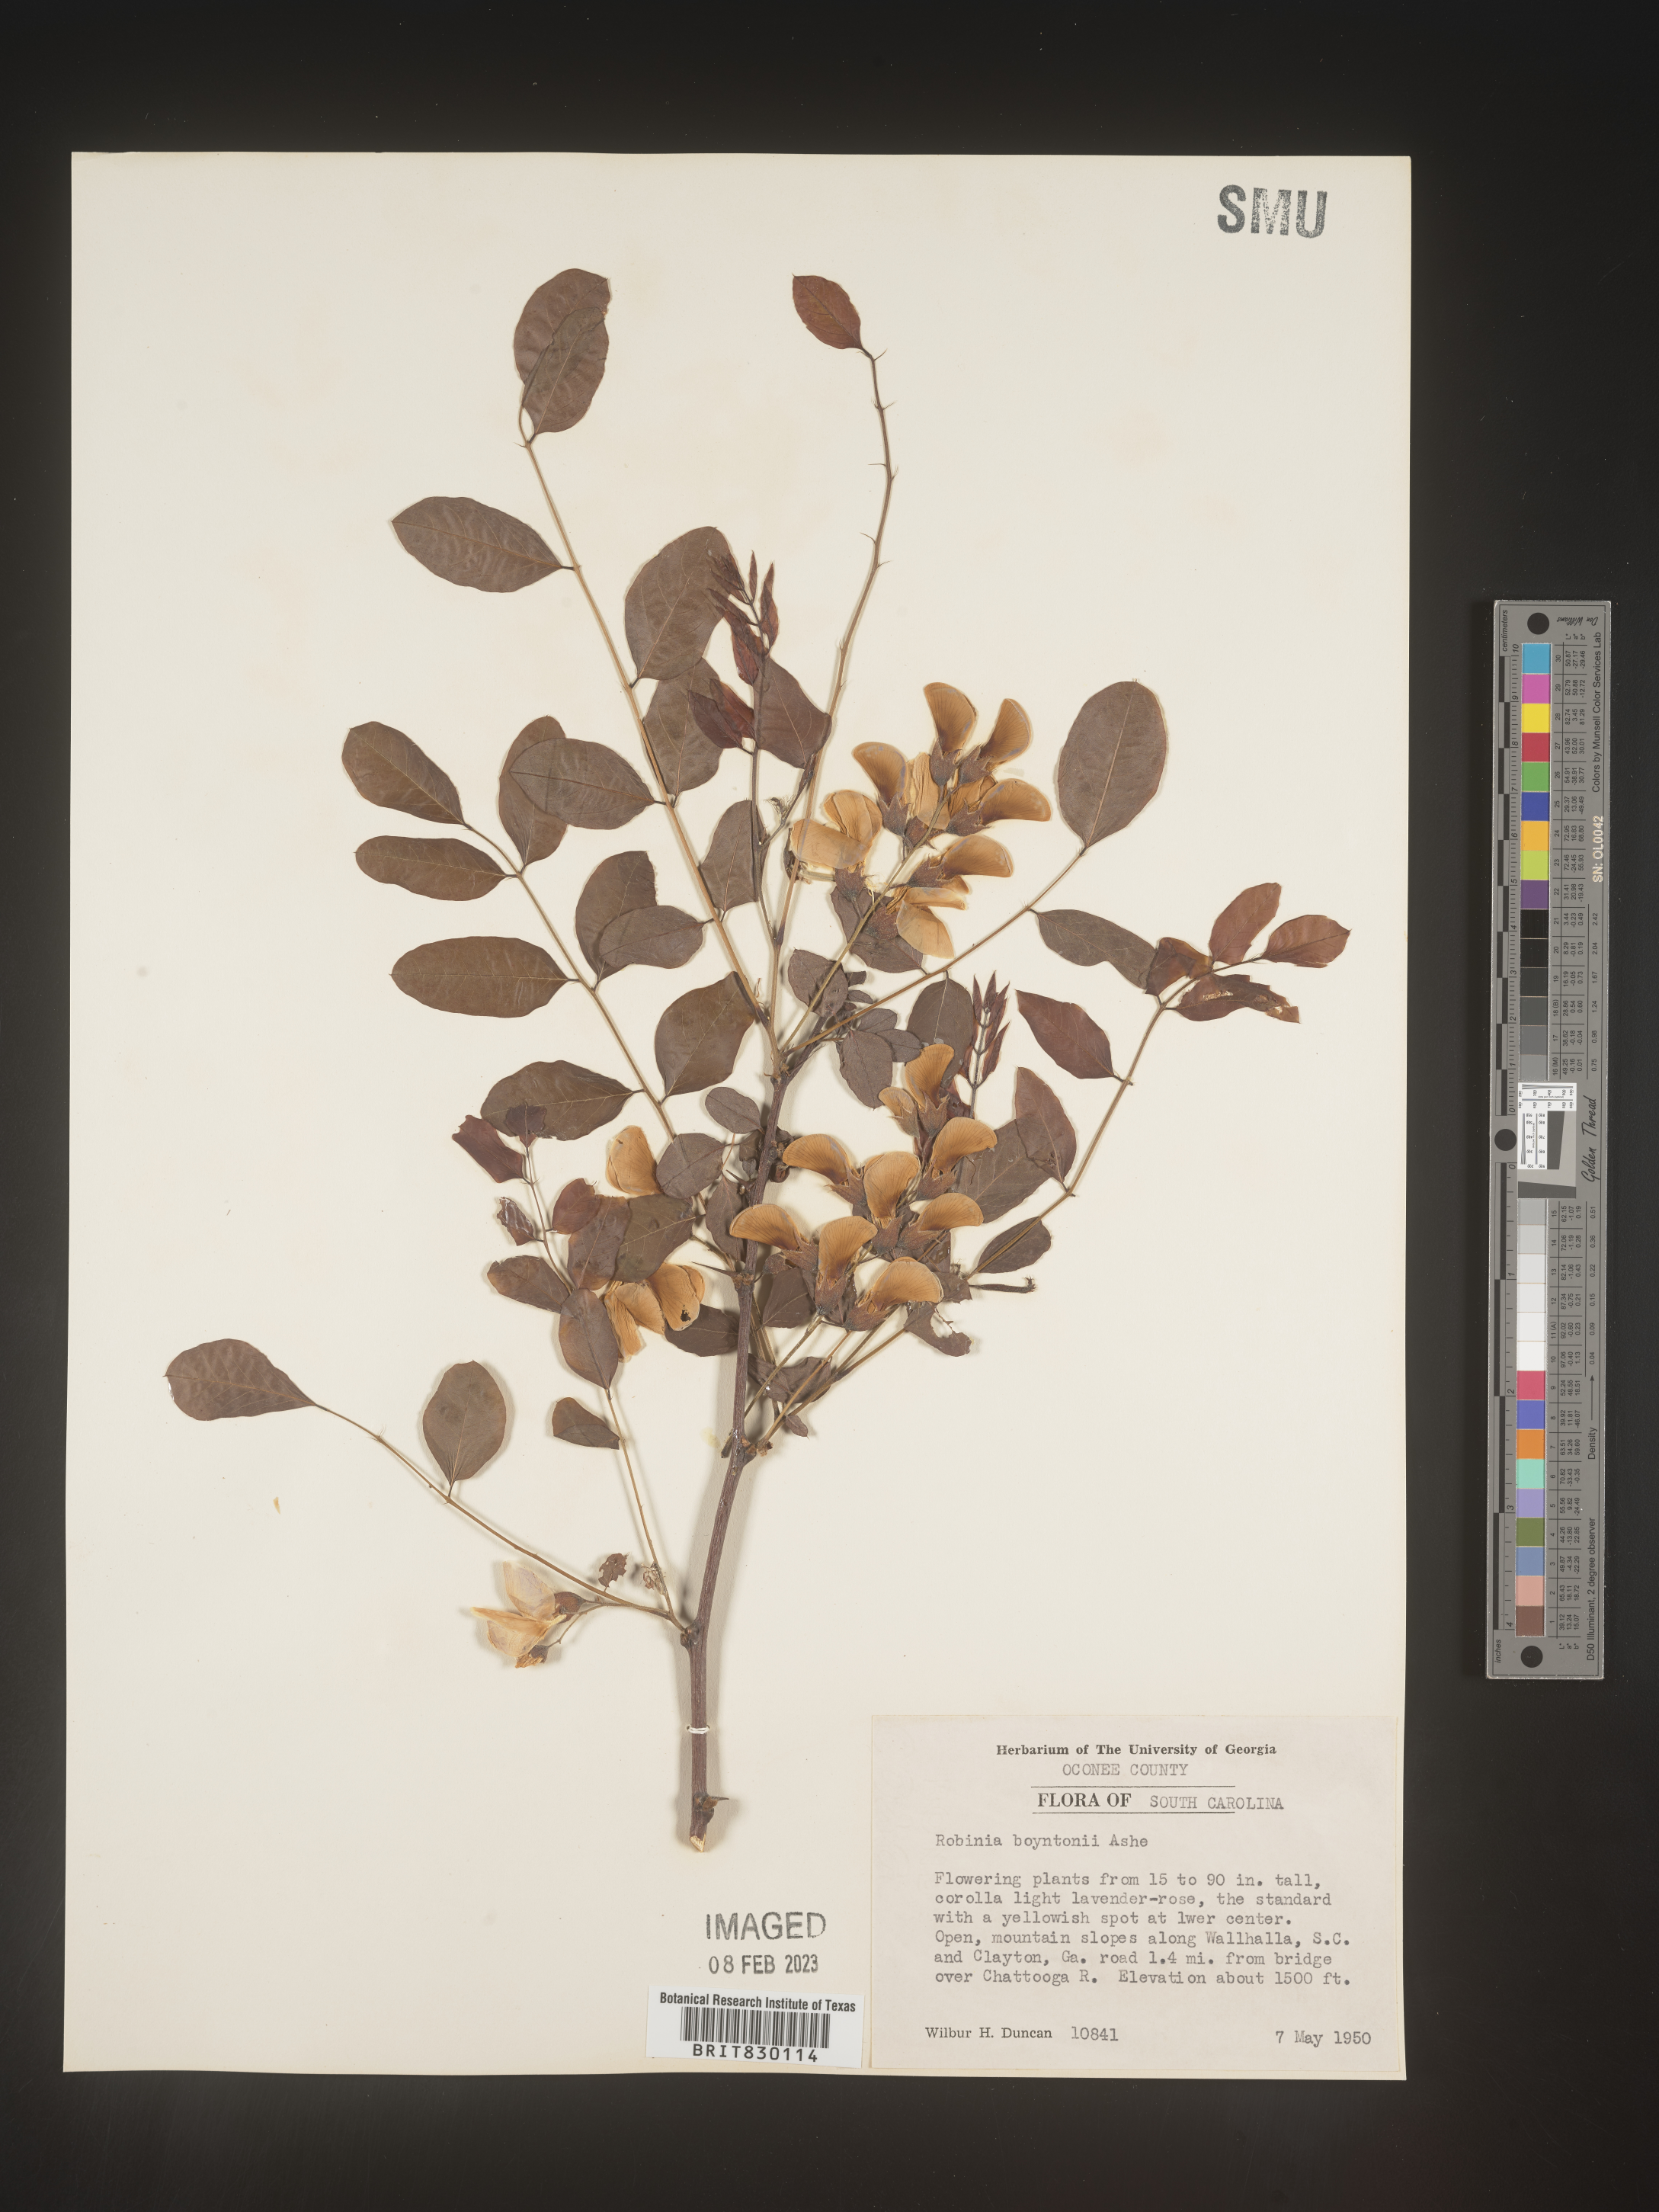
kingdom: Plantae
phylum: Tracheophyta
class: Magnoliopsida
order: Fabales
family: Fabaceae
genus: Robinia
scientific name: Robinia
